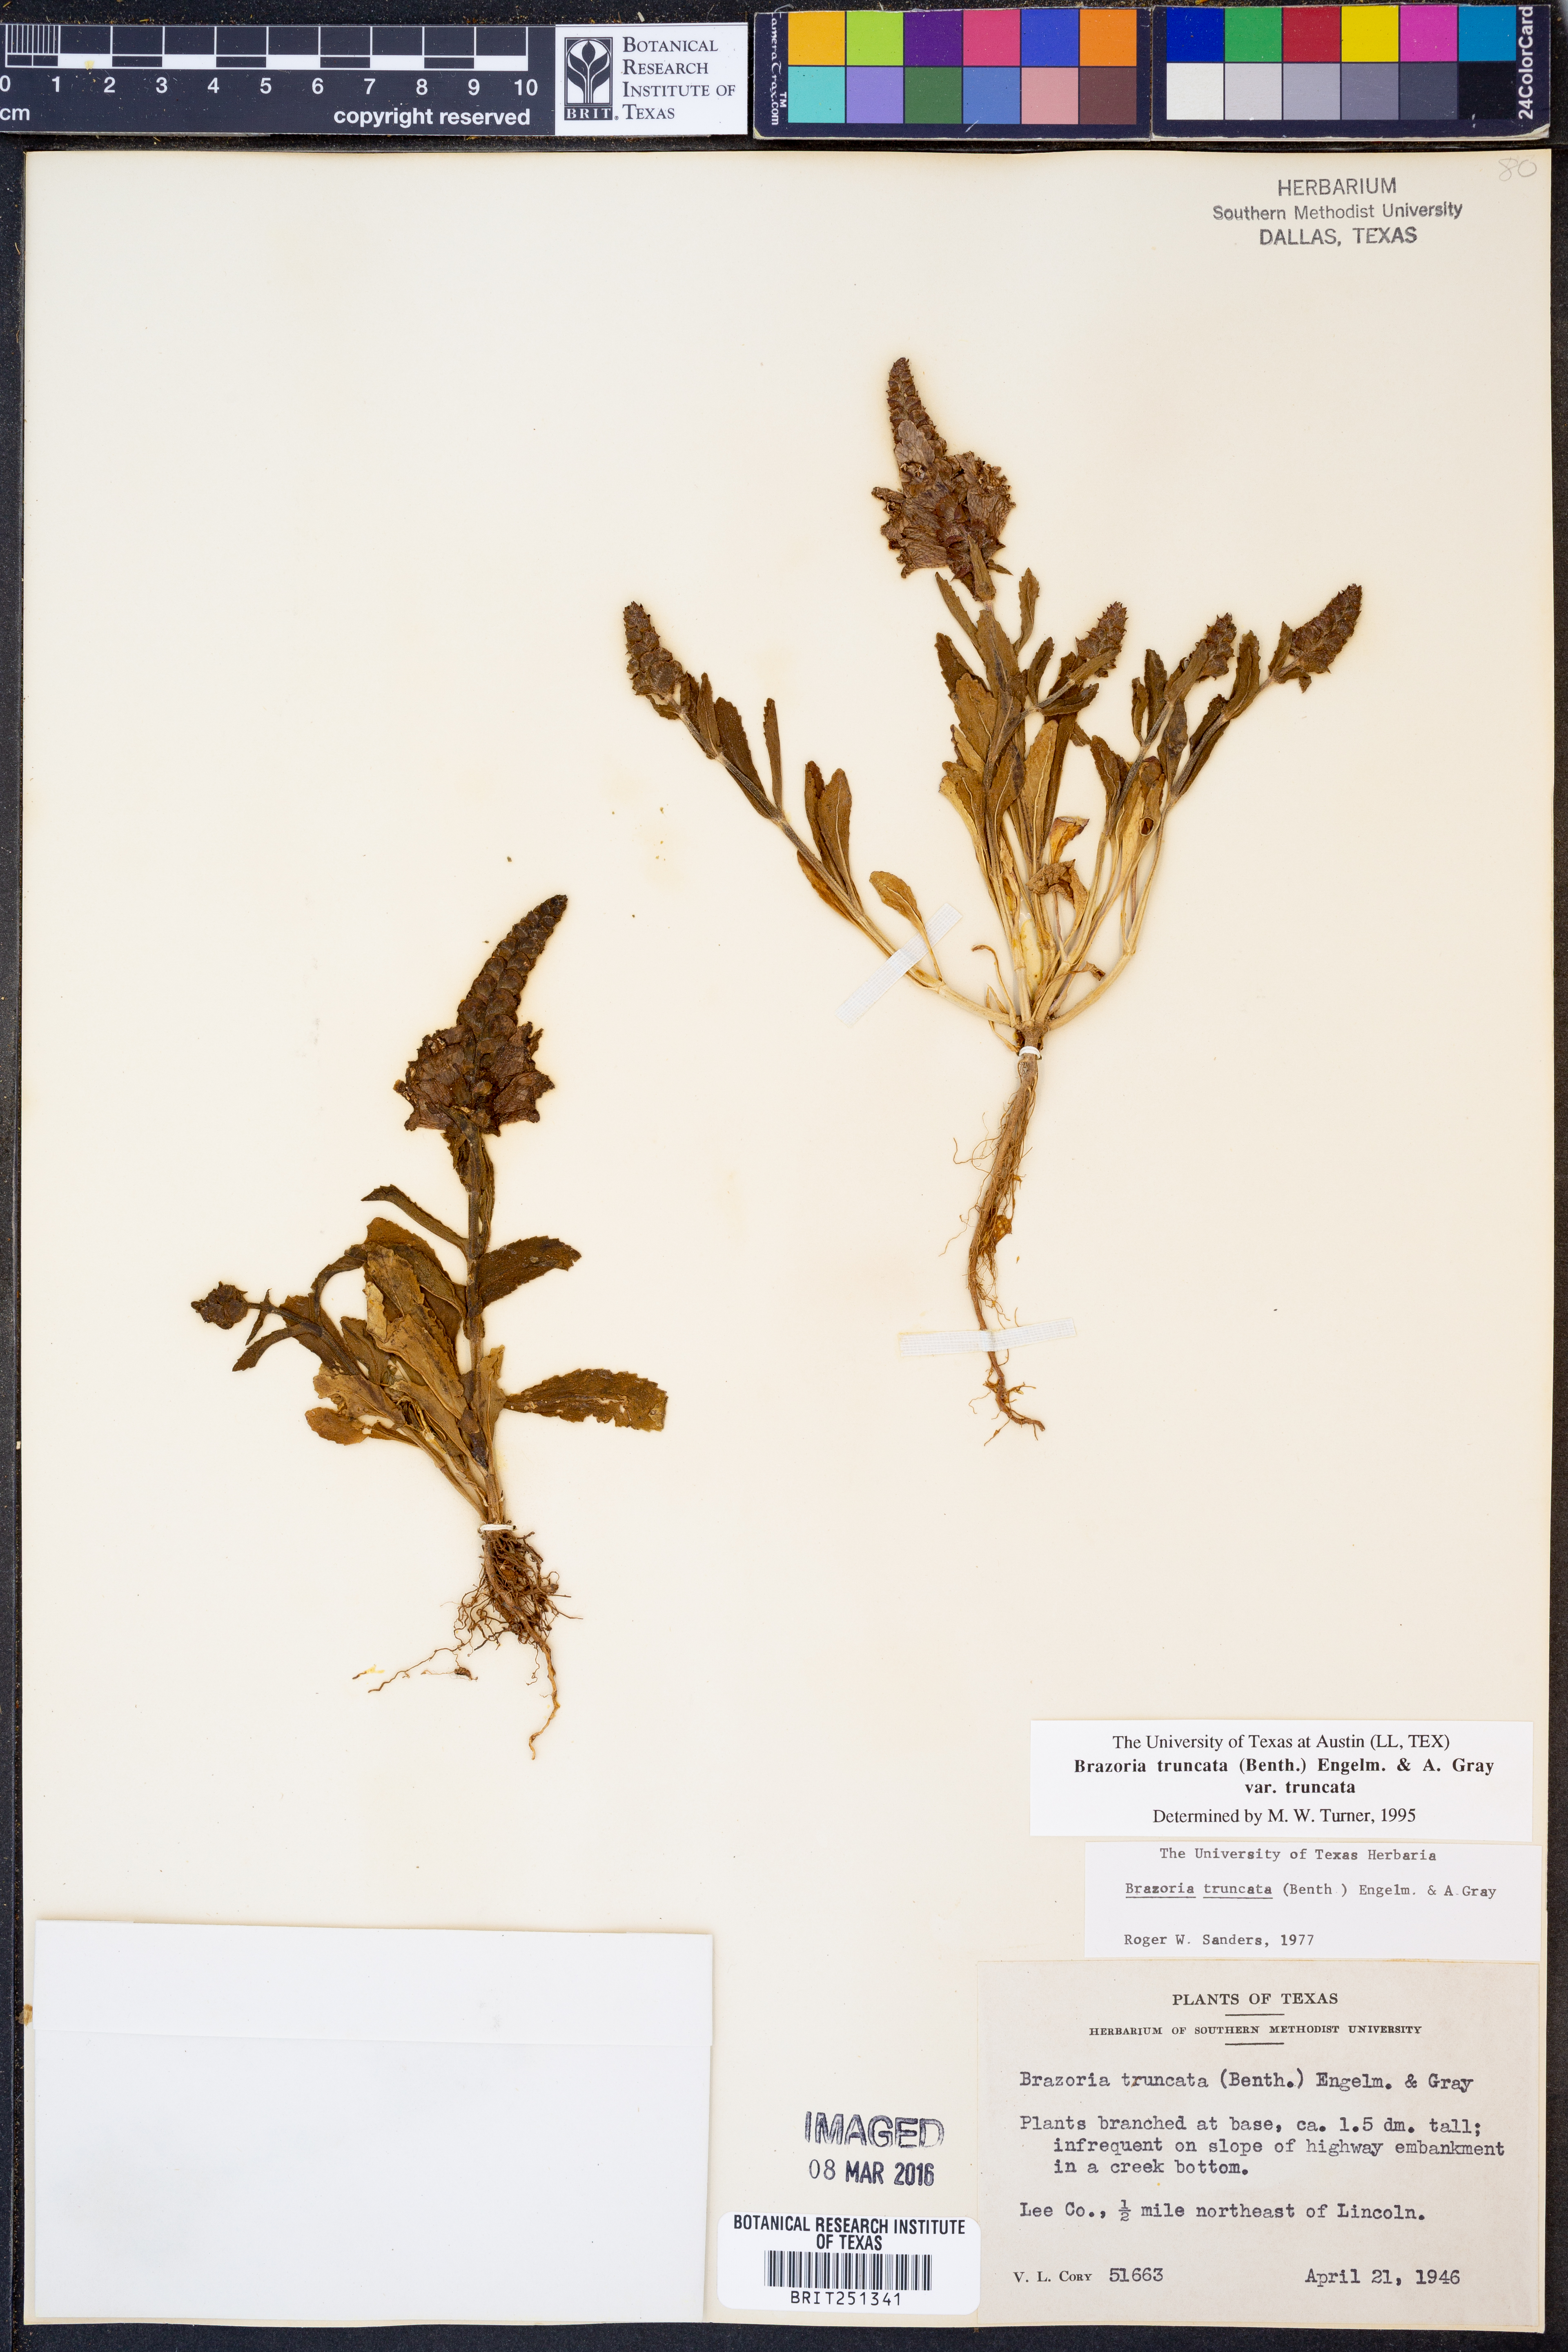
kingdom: Plantae
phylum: Tracheophyta
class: Magnoliopsida
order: Lamiales
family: Lamiaceae
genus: Brazoria
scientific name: Brazoria truncata
